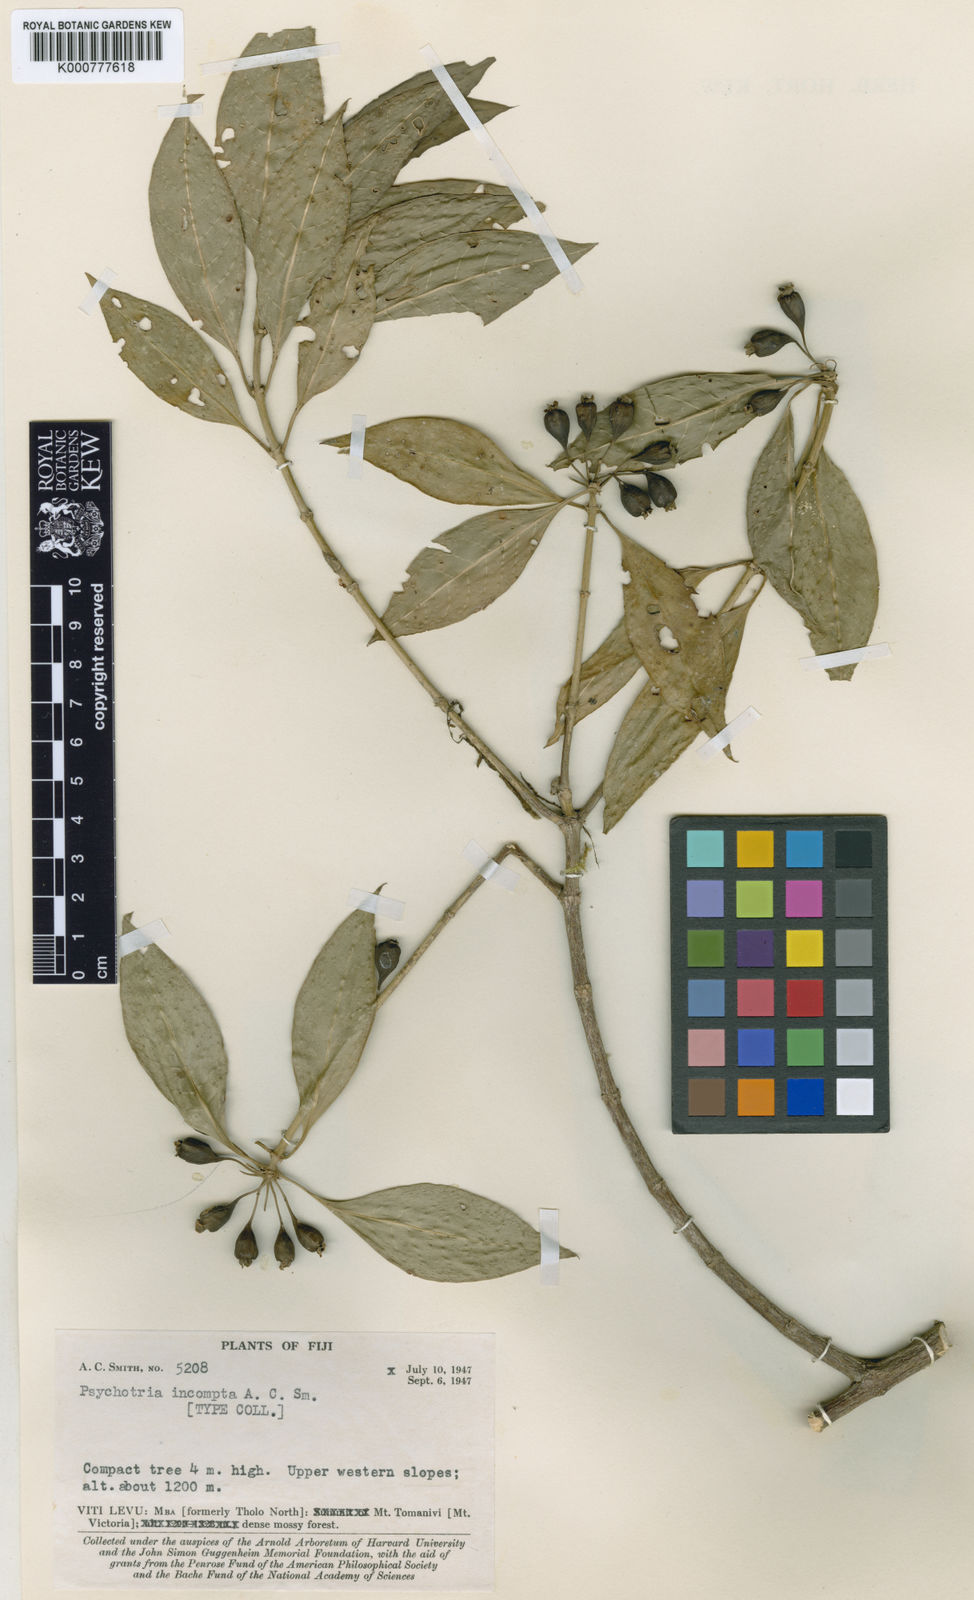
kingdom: Plantae
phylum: Tracheophyta
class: Magnoliopsida
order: Gentianales
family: Rubiaceae
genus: Eumachia
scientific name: Eumachia incompta
